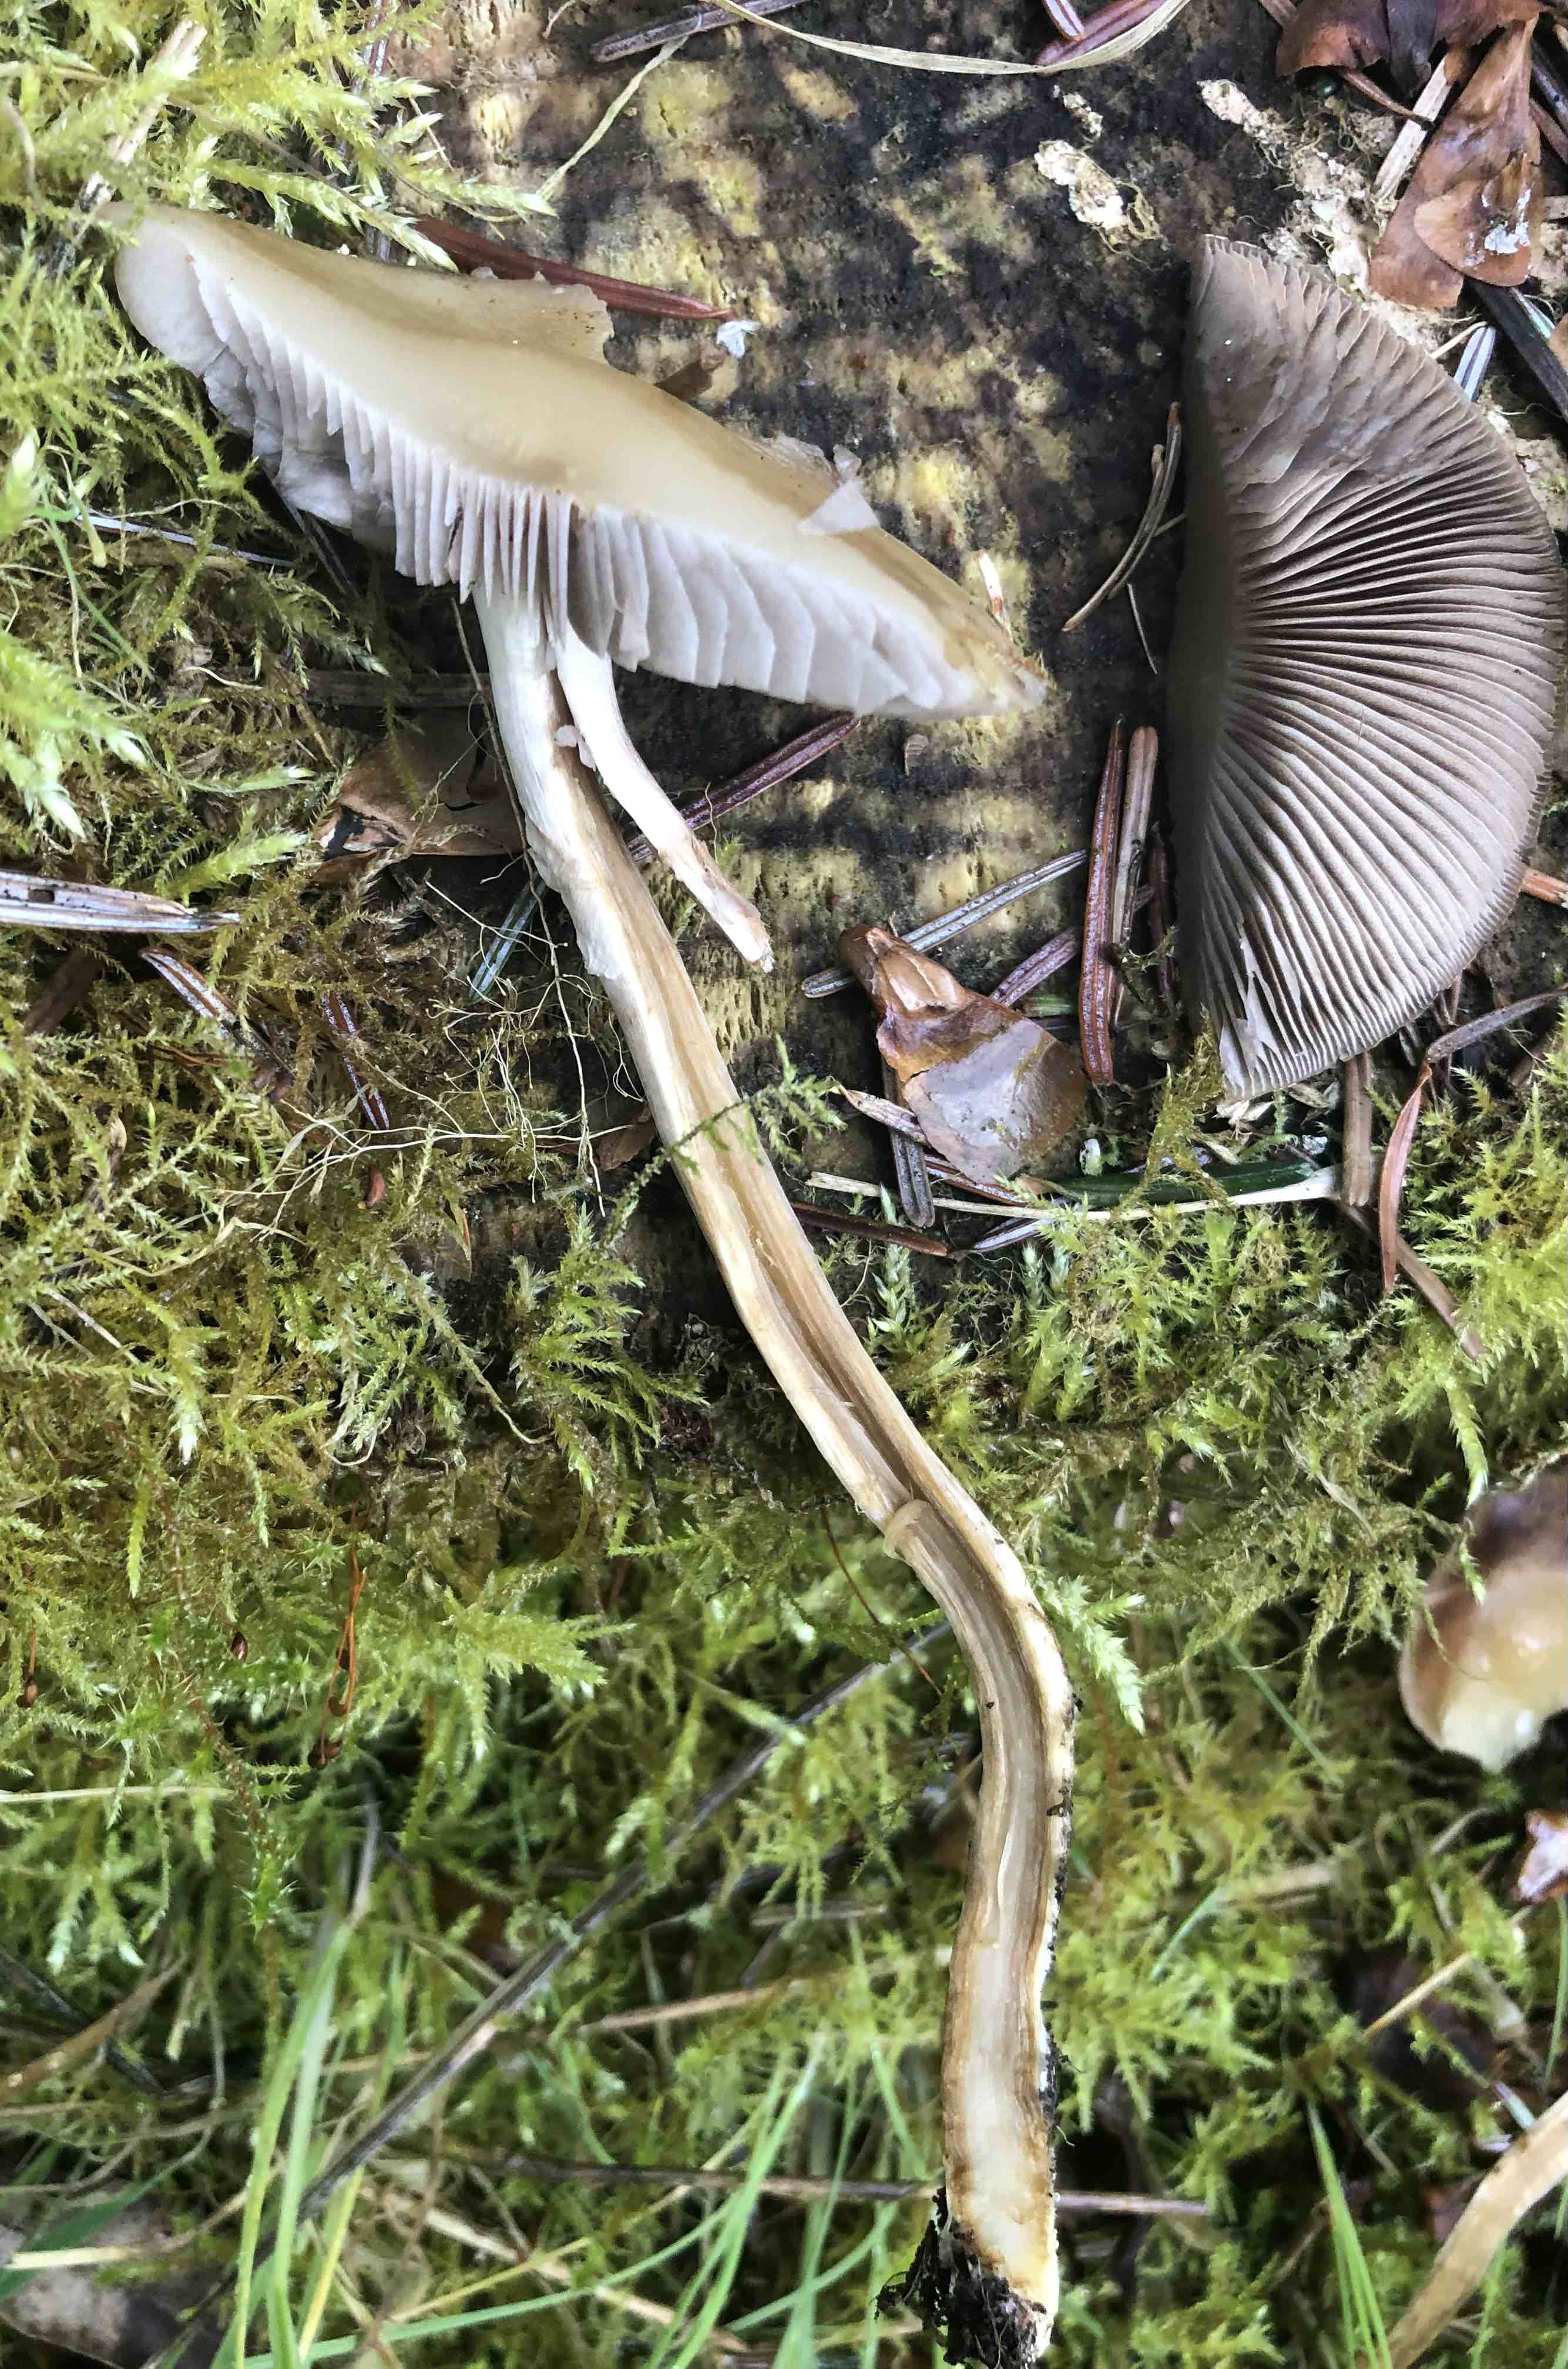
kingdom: Fungi
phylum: Basidiomycota
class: Agaricomycetes
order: Agaricales
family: Psathyrellaceae
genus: Psathyrella
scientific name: Psathyrella
